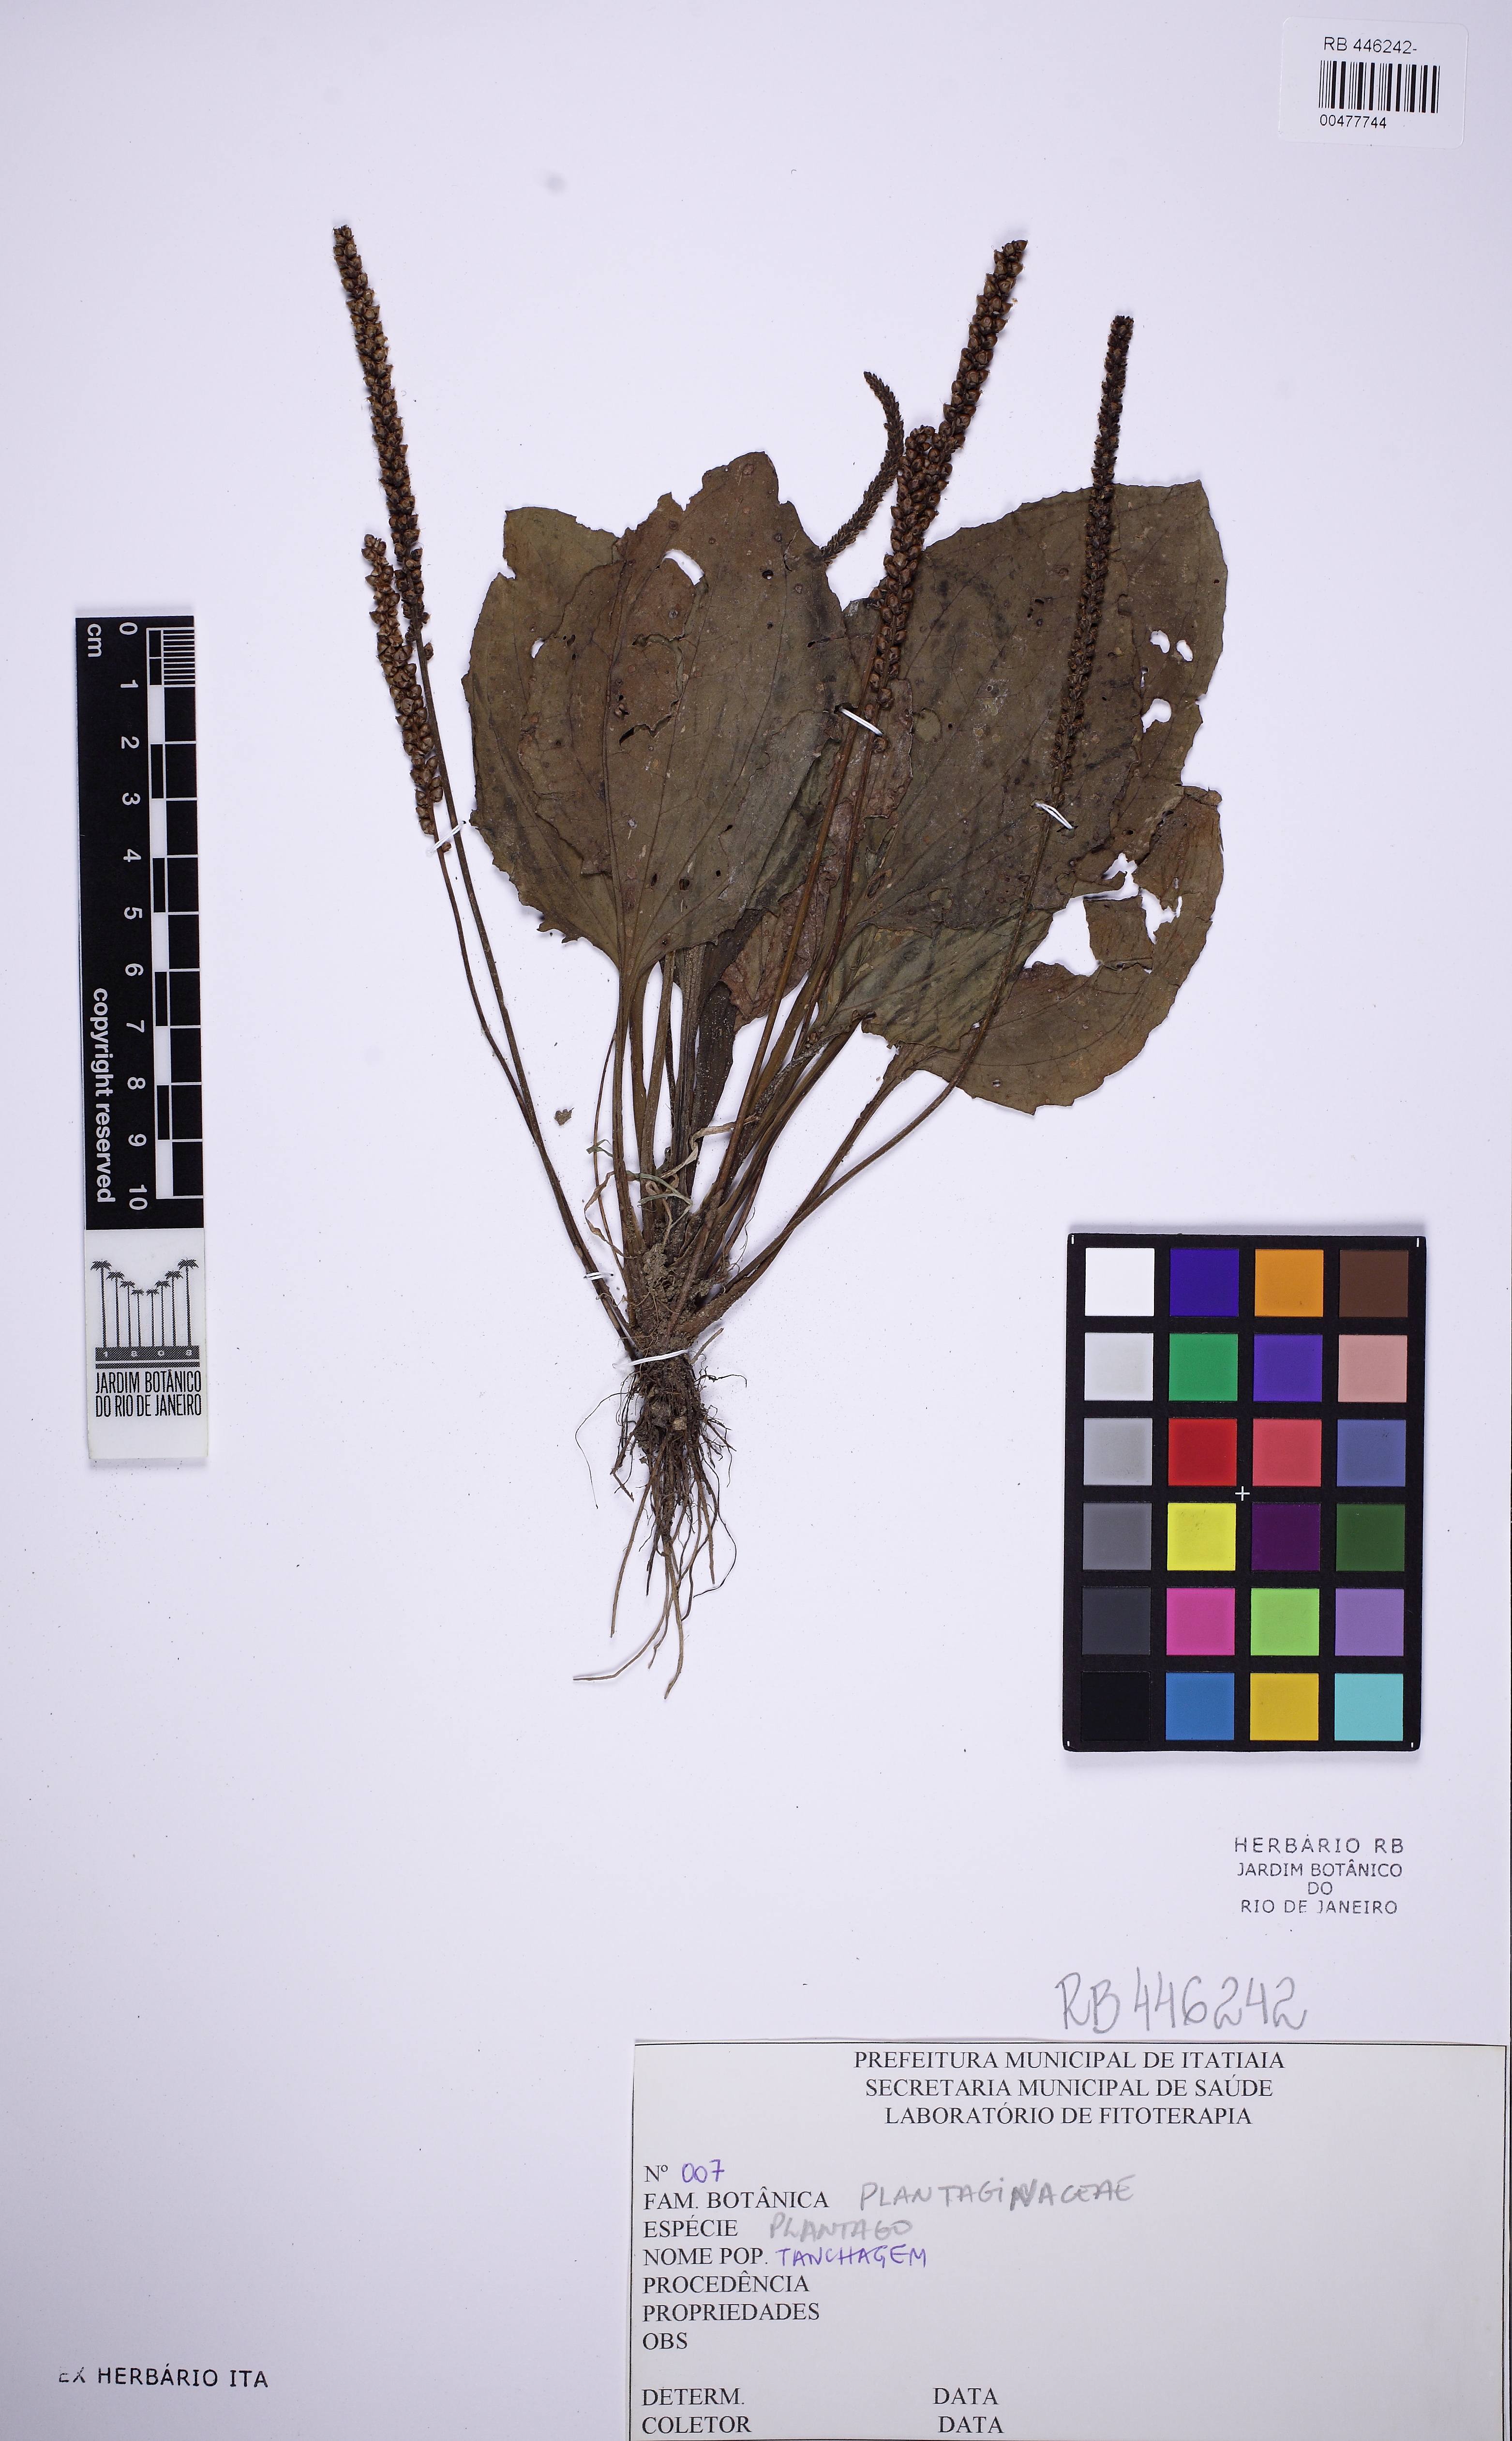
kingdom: Plantae
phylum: Tracheophyta
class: Magnoliopsida
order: Lamiales
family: Plantaginaceae
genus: Plantago
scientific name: Plantago
